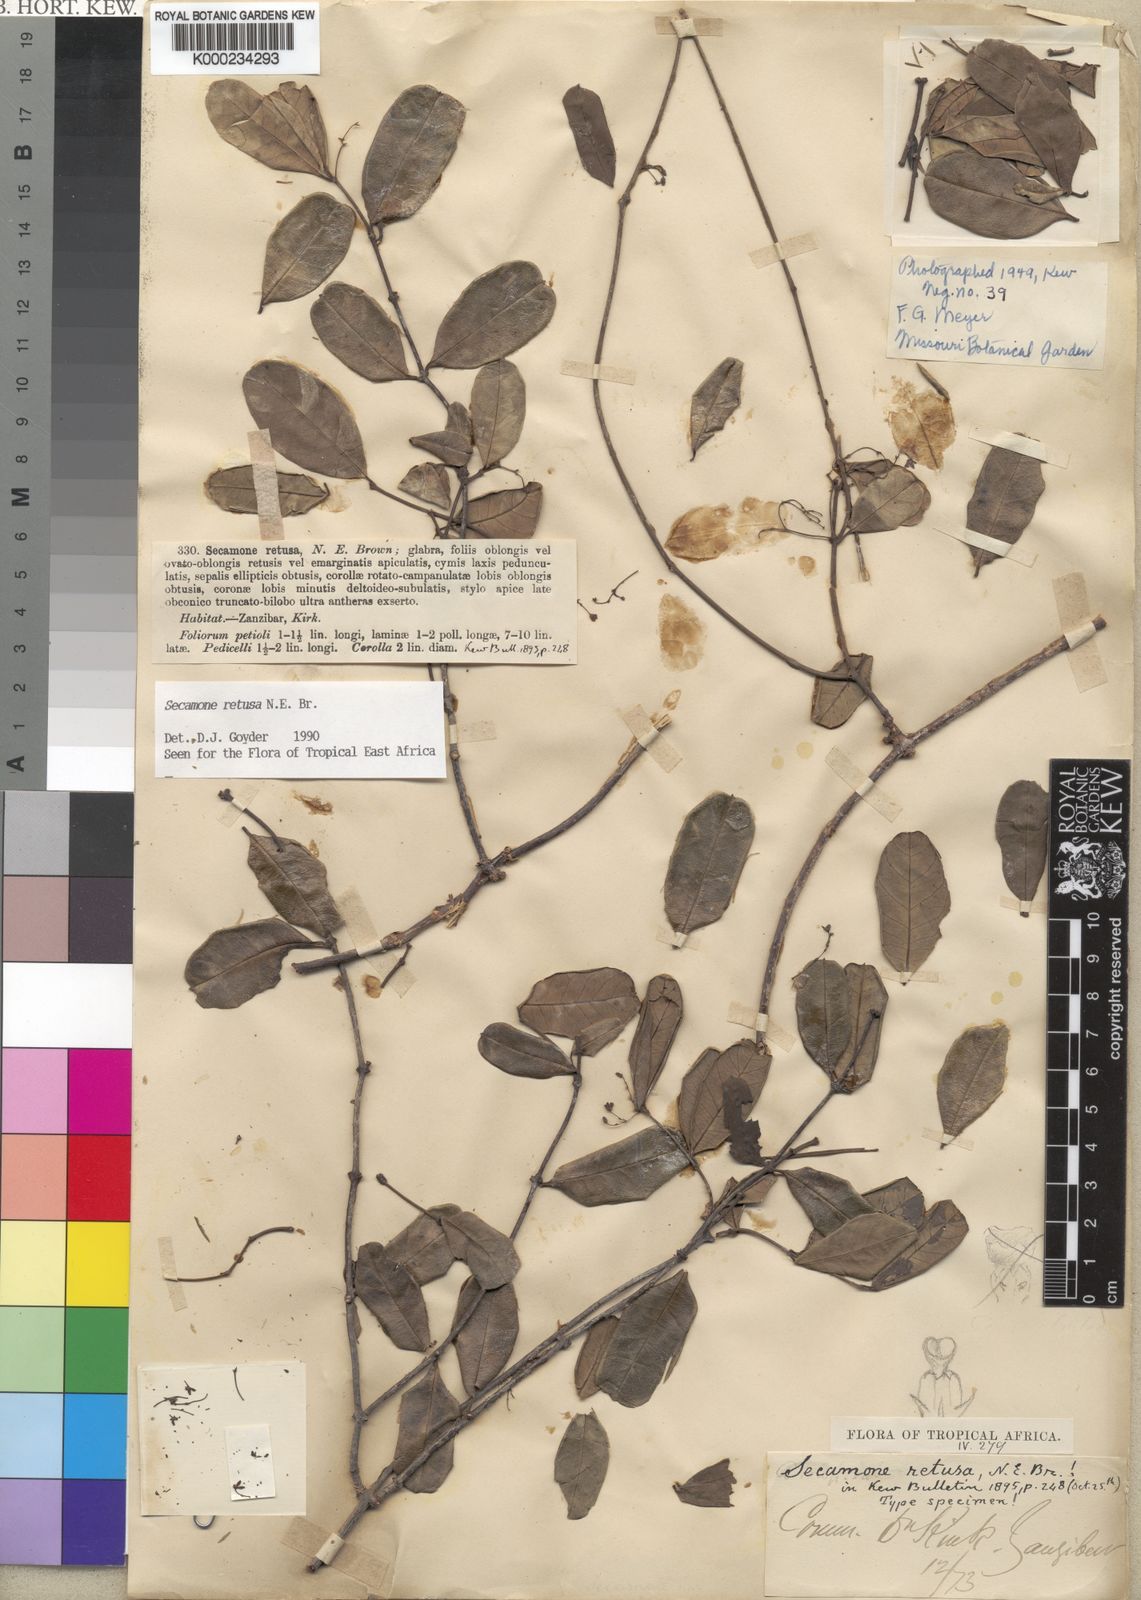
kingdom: Plantae
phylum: Tracheophyta
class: Magnoliopsida
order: Gentianales
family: Apocynaceae
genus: Secamone
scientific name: Secamone retusa
